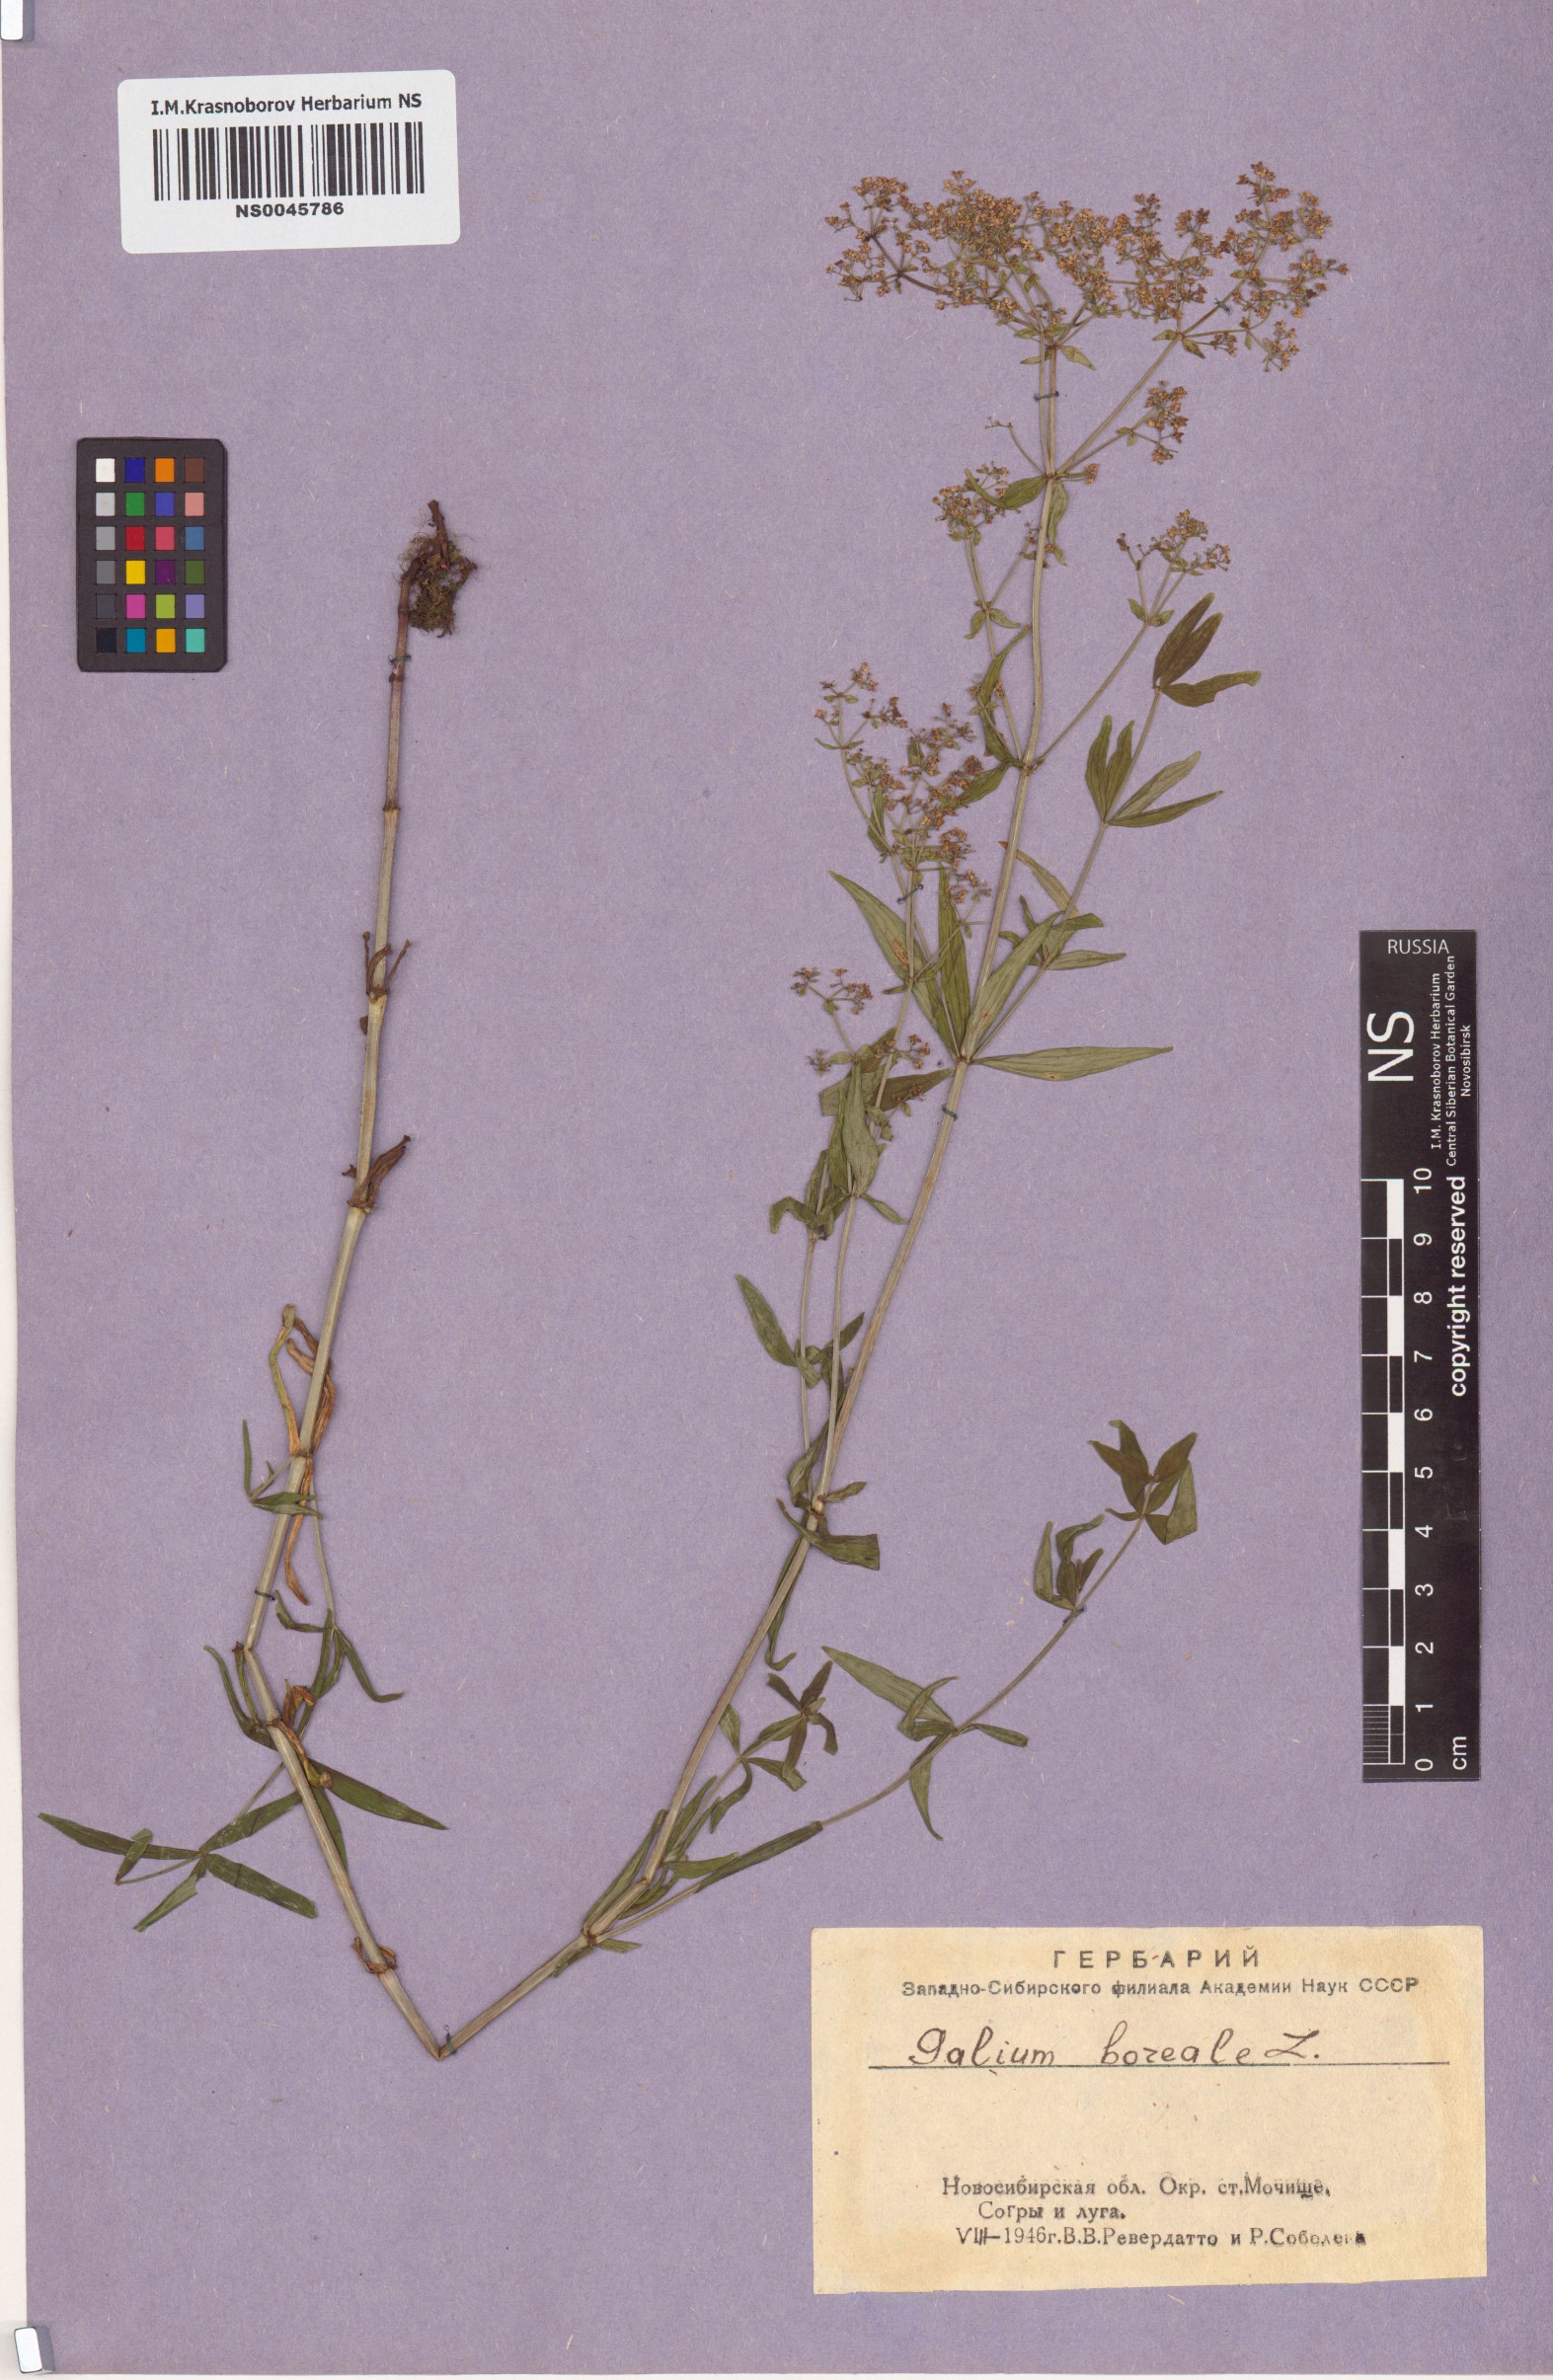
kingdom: Plantae
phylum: Tracheophyta
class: Magnoliopsida
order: Gentianales
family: Rubiaceae
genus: Galium
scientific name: Galium boreale
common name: Northern bedstraw
